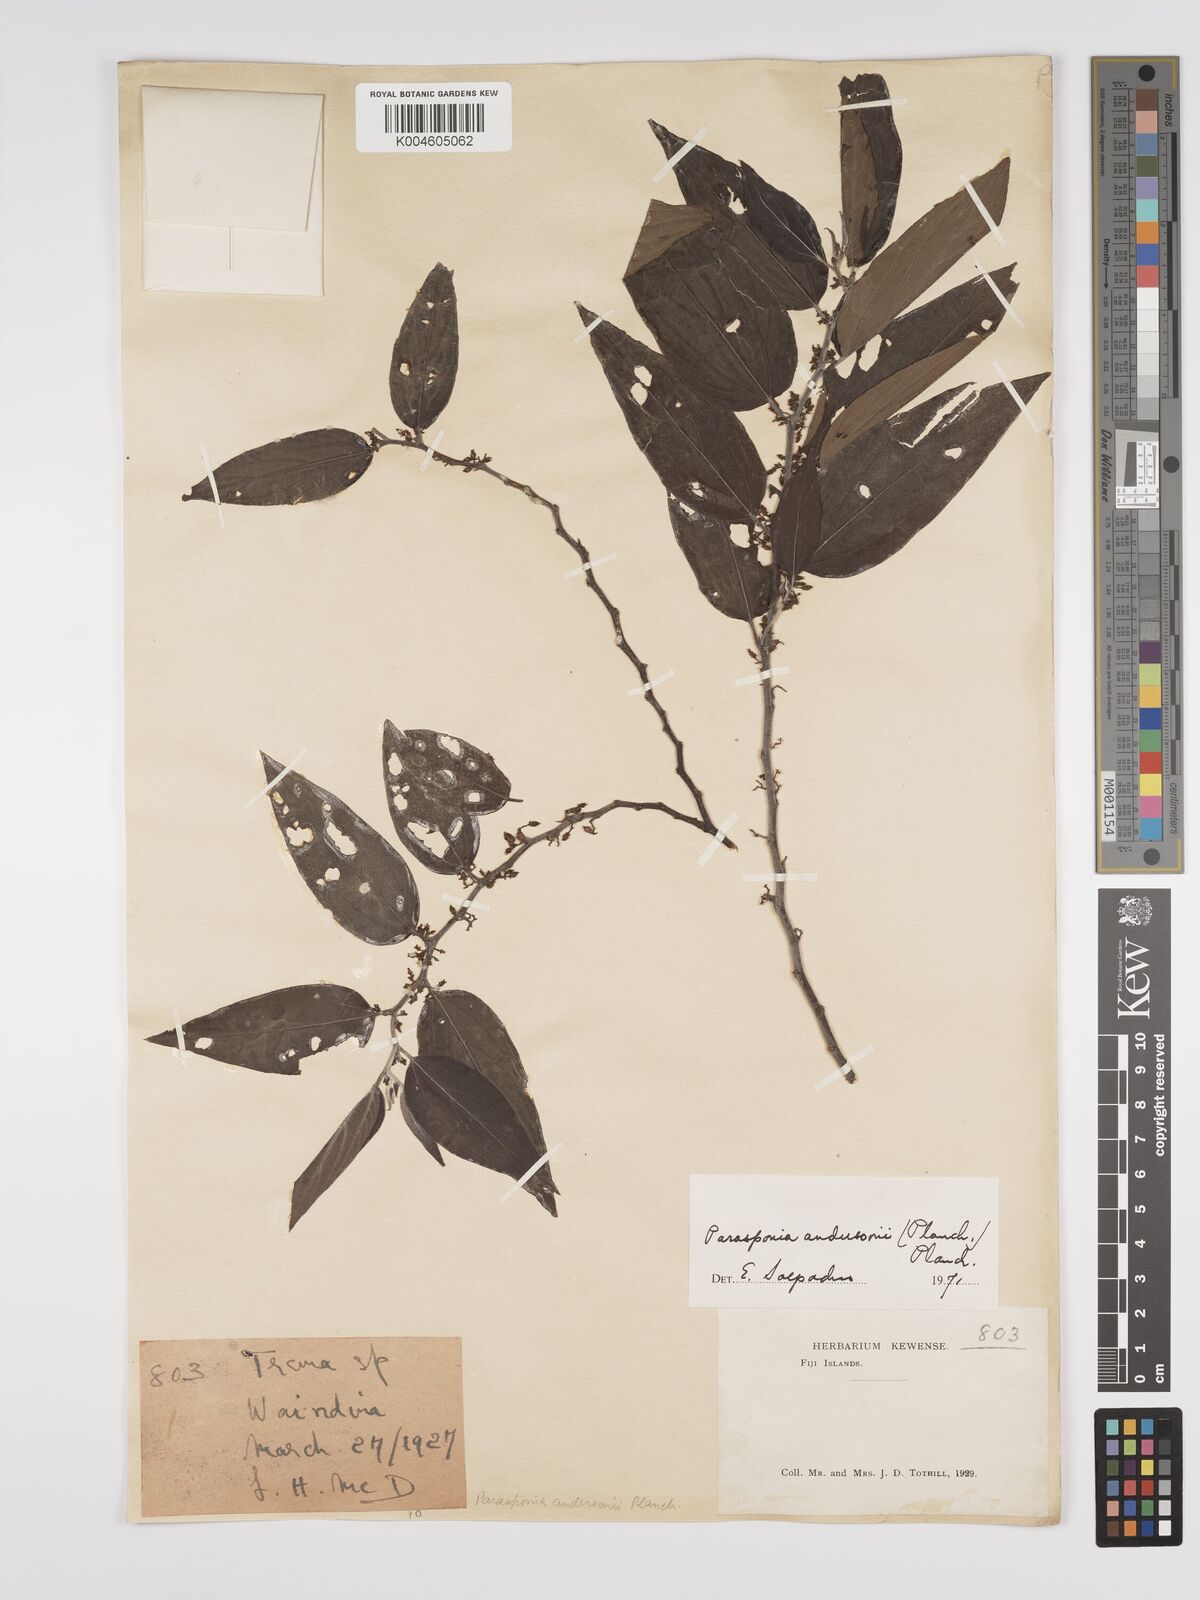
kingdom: Plantae
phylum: Tracheophyta
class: Magnoliopsida
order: Rosales
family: Cannabaceae
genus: Trema
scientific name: Trema andersonii
